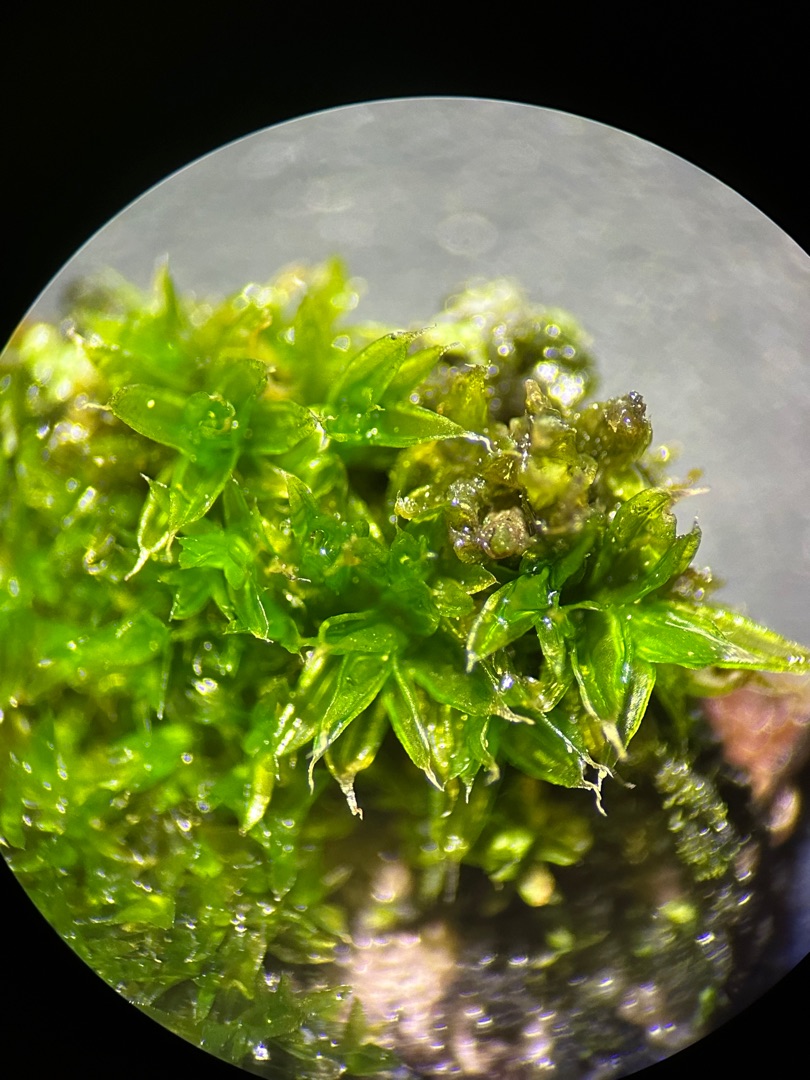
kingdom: Plantae
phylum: Bryophyta
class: Bryopsida
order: Orthotrichales
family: Orthotrichaceae
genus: Orthotrichum
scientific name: Orthotrichum diaphanum
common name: Hårspidset furehætte
